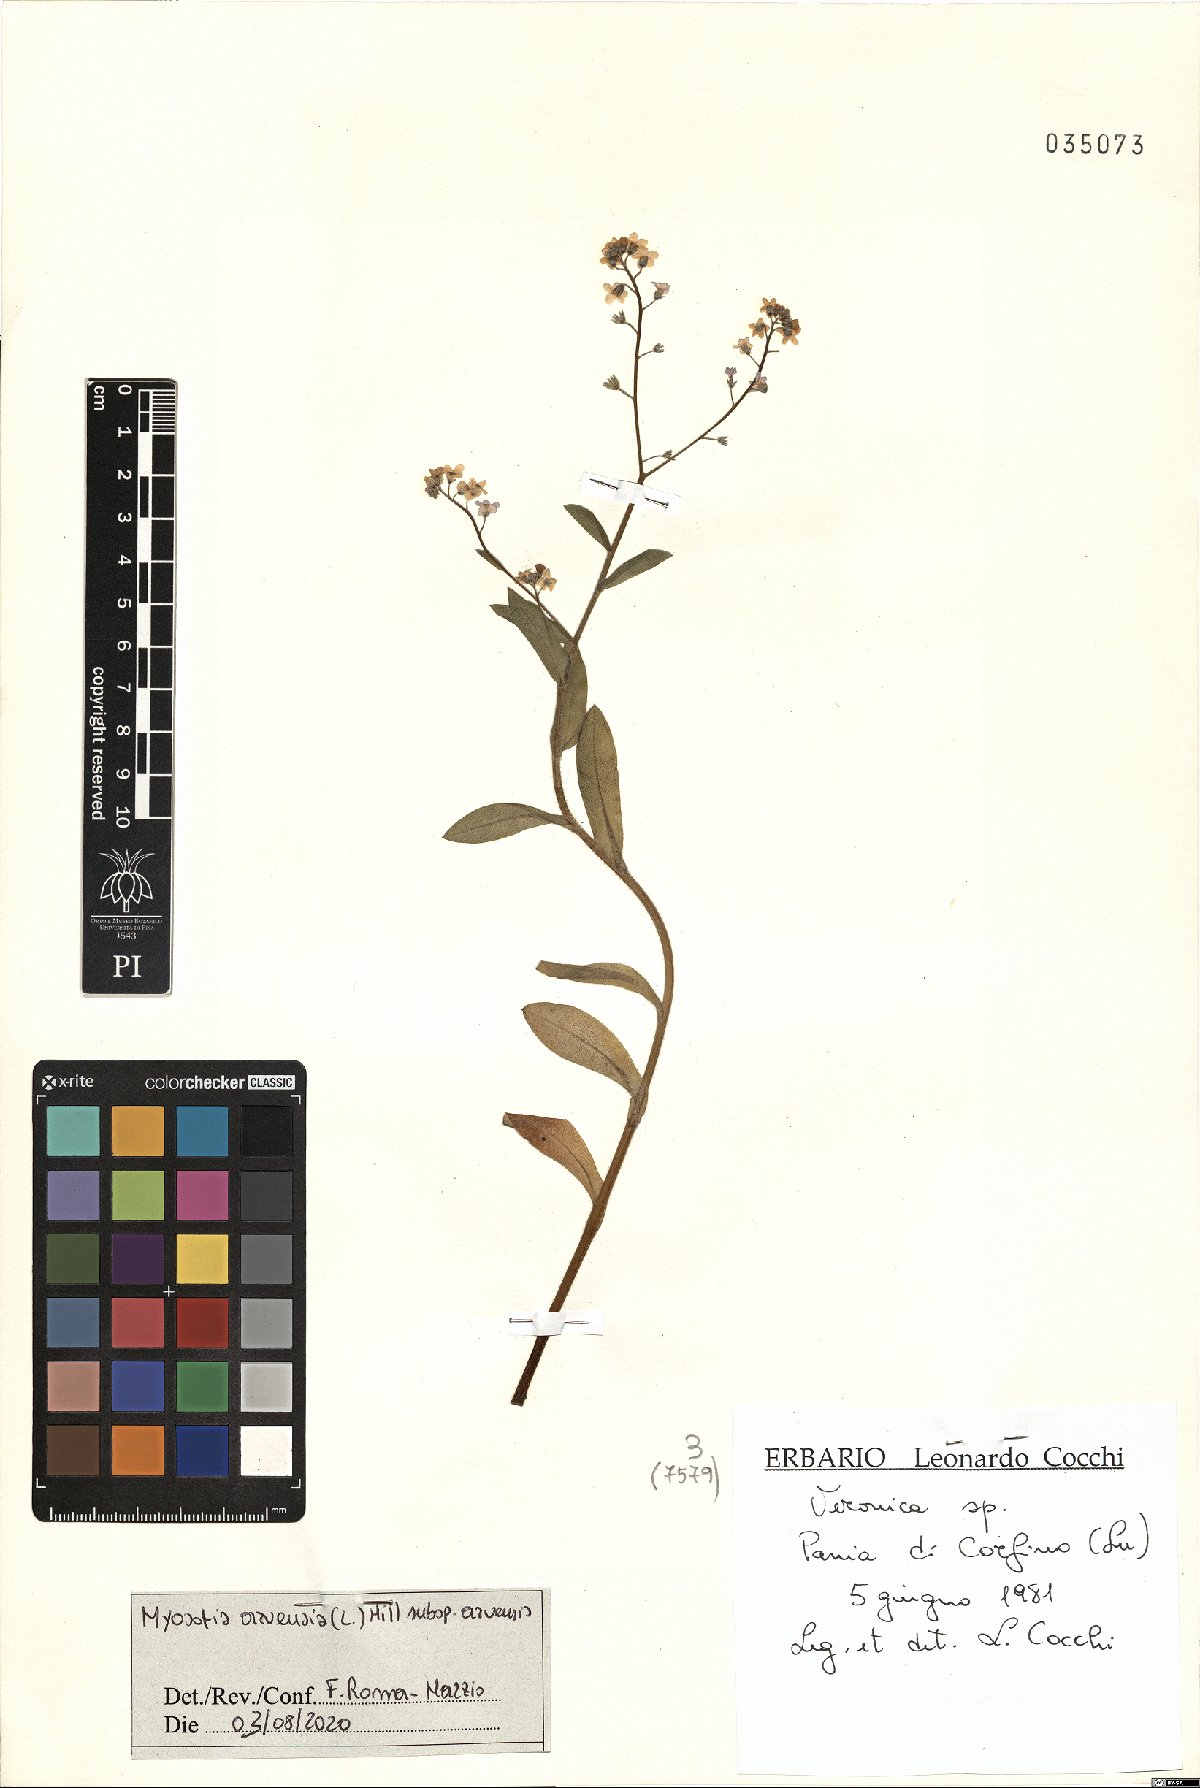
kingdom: Plantae
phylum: Tracheophyta
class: Magnoliopsida
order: Boraginales
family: Boraginaceae
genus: Myosotis
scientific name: Myosotis arvensis
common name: Field forget-me-not
